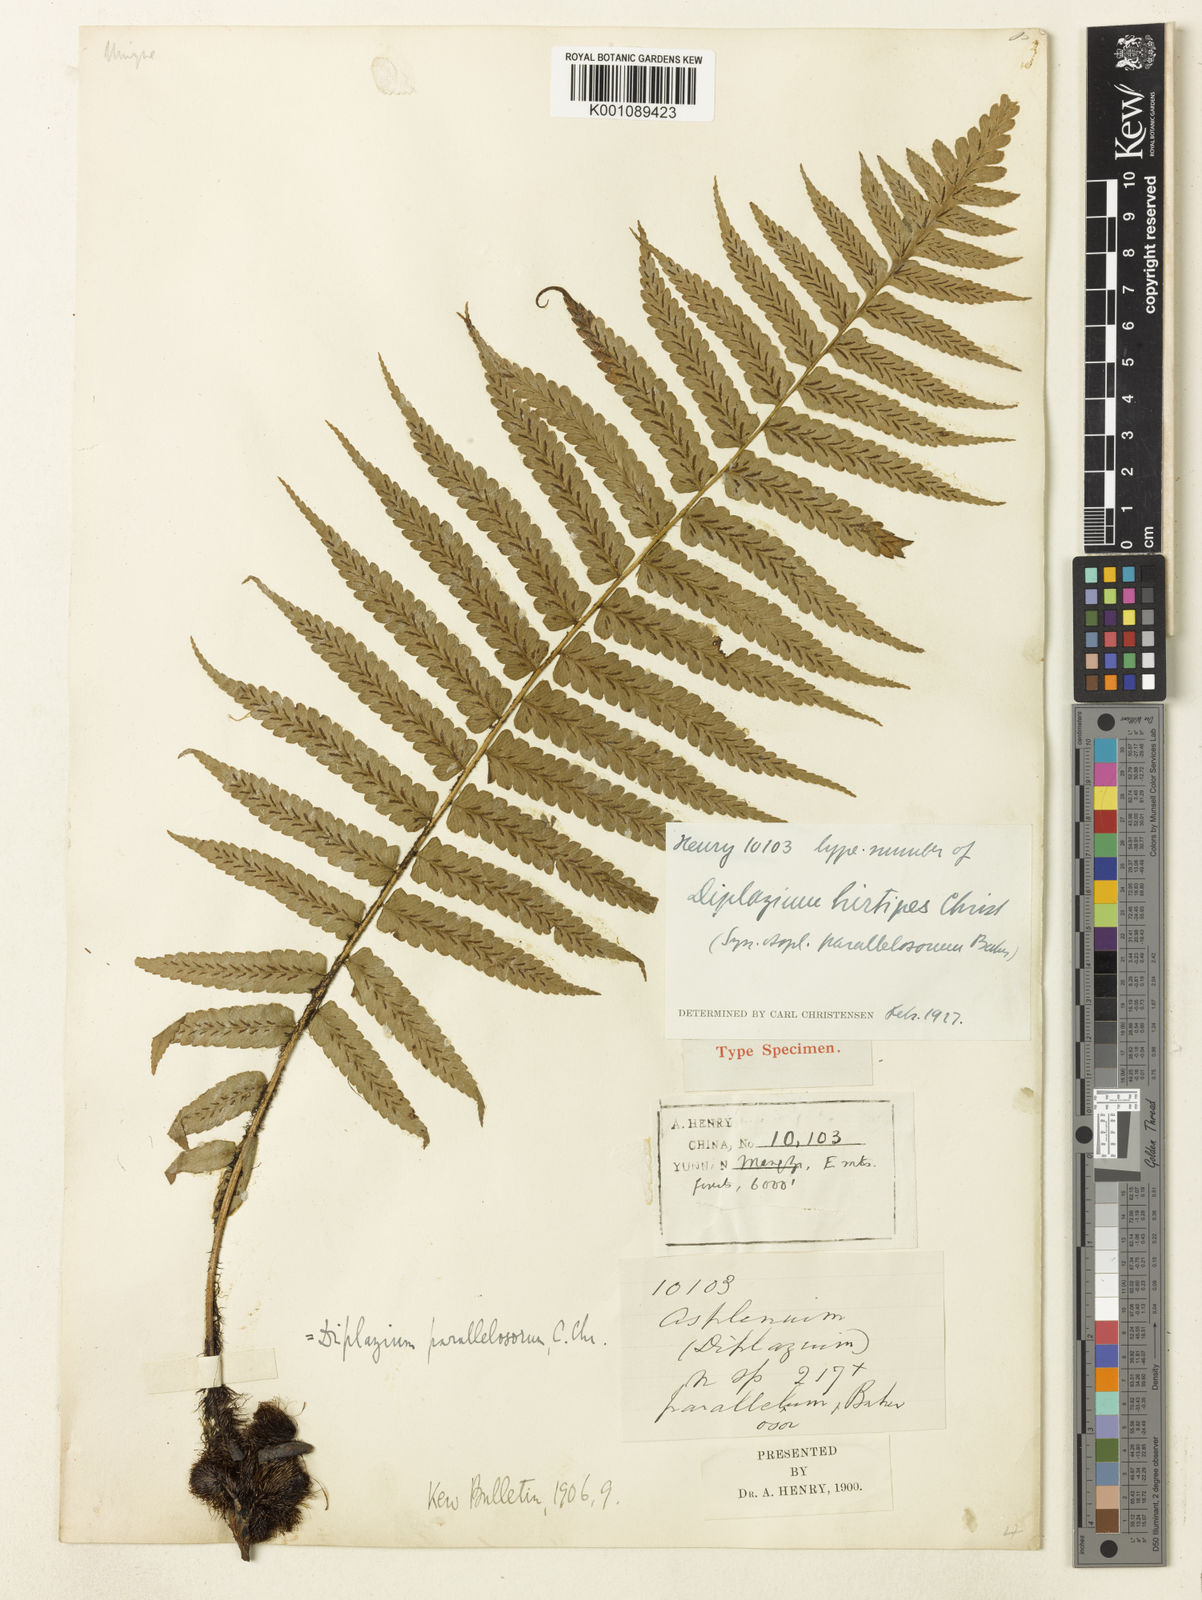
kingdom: Plantae
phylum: Tracheophyta
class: Polypodiopsida
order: Polypodiales
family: Athyriaceae
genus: Diplazium
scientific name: Diplazium hirtipes
